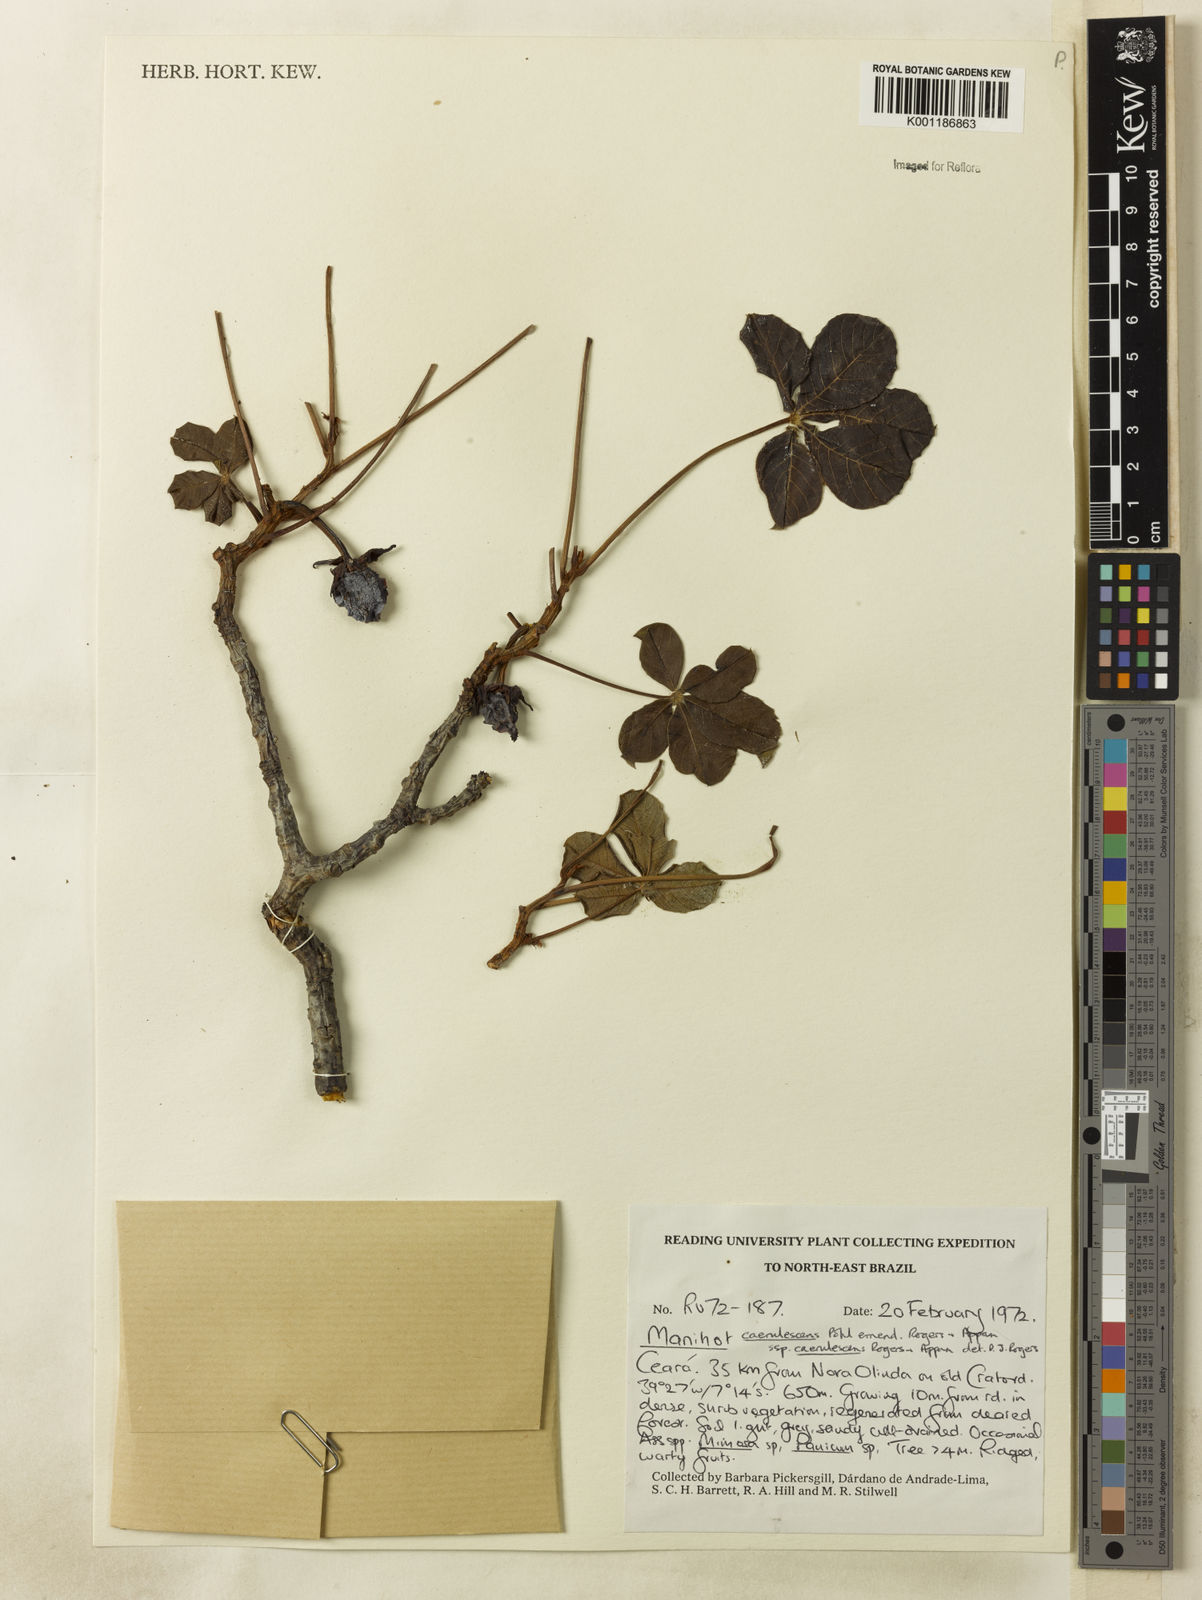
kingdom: Plantae
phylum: Tracheophyta
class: Magnoliopsida
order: Malpighiales
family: Euphorbiaceae
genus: Manihot
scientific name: Manihot caerulescens
